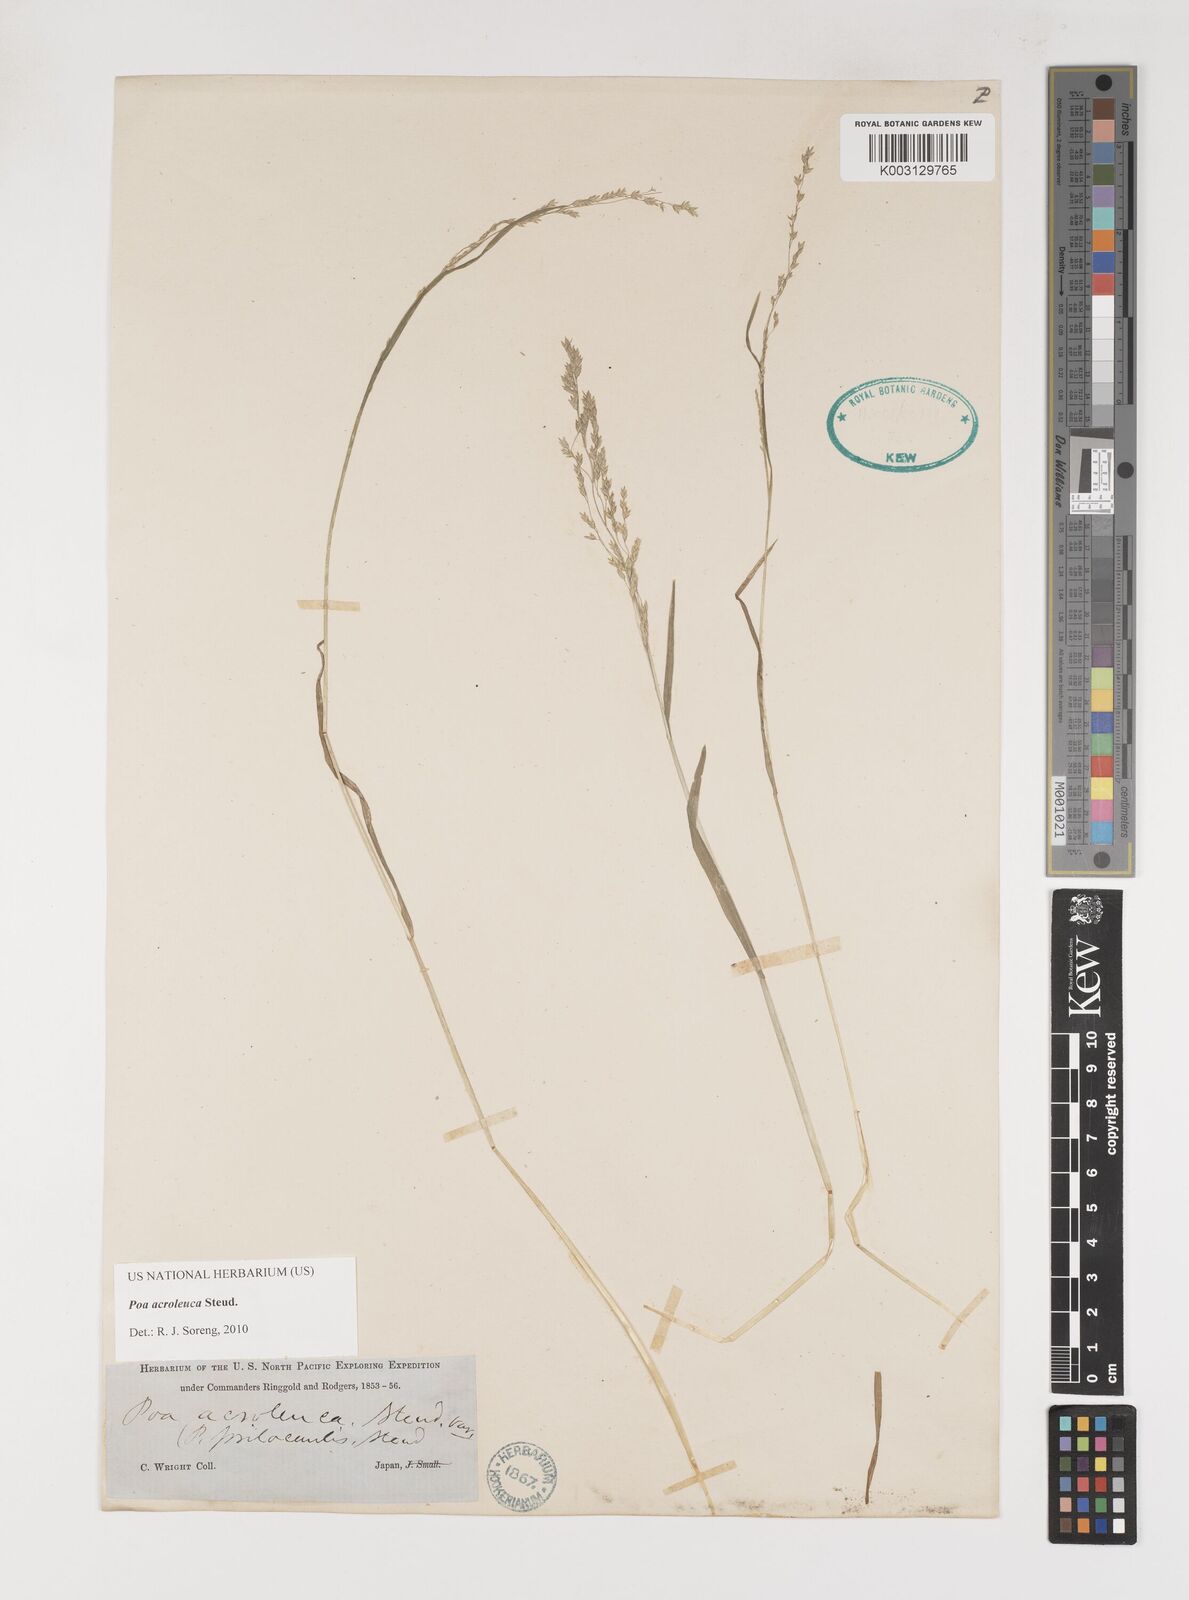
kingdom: Plantae
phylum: Tracheophyta
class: Liliopsida
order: Poales
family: Poaceae
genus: Poa
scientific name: Poa acroleuca
